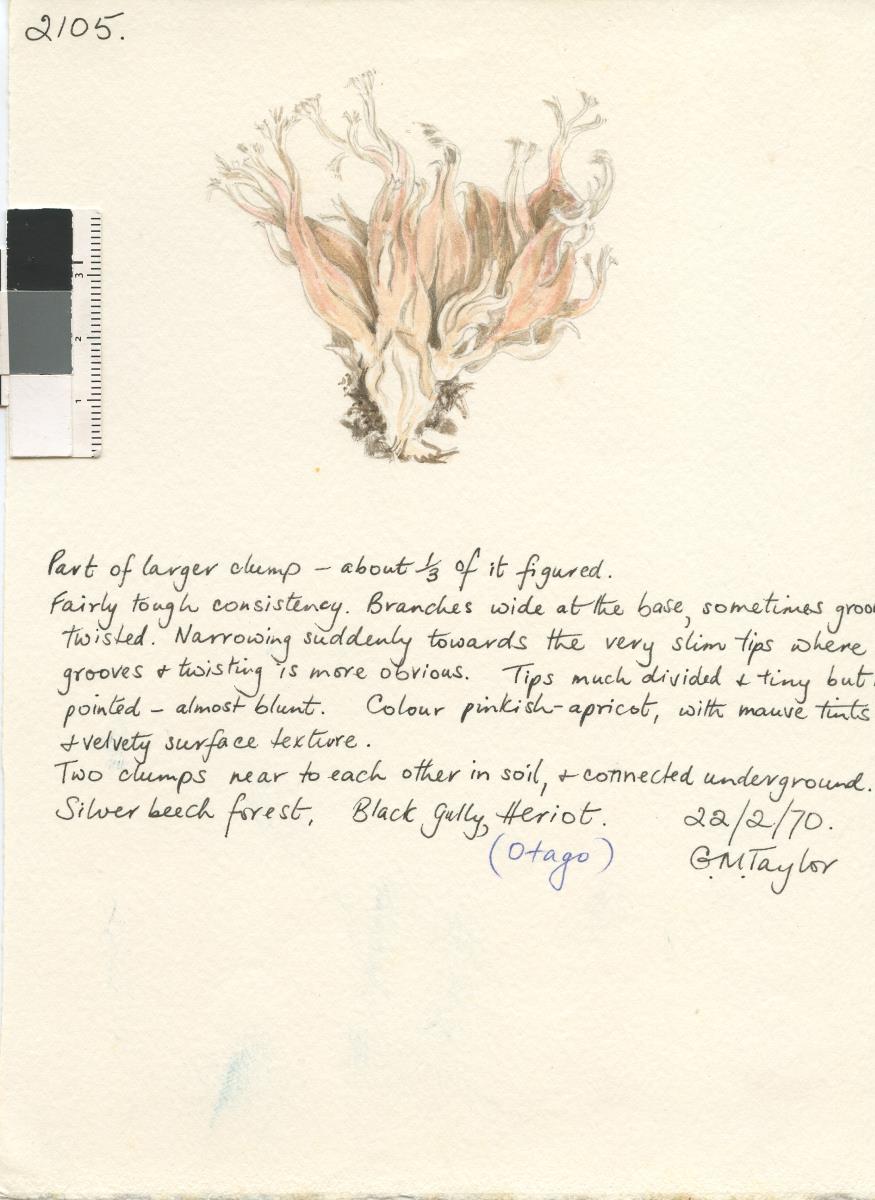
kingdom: Fungi
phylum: Basidiomycota
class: Agaricomycetes
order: Gomphales
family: Gomphaceae
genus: Ramaria
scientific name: Ramaria
